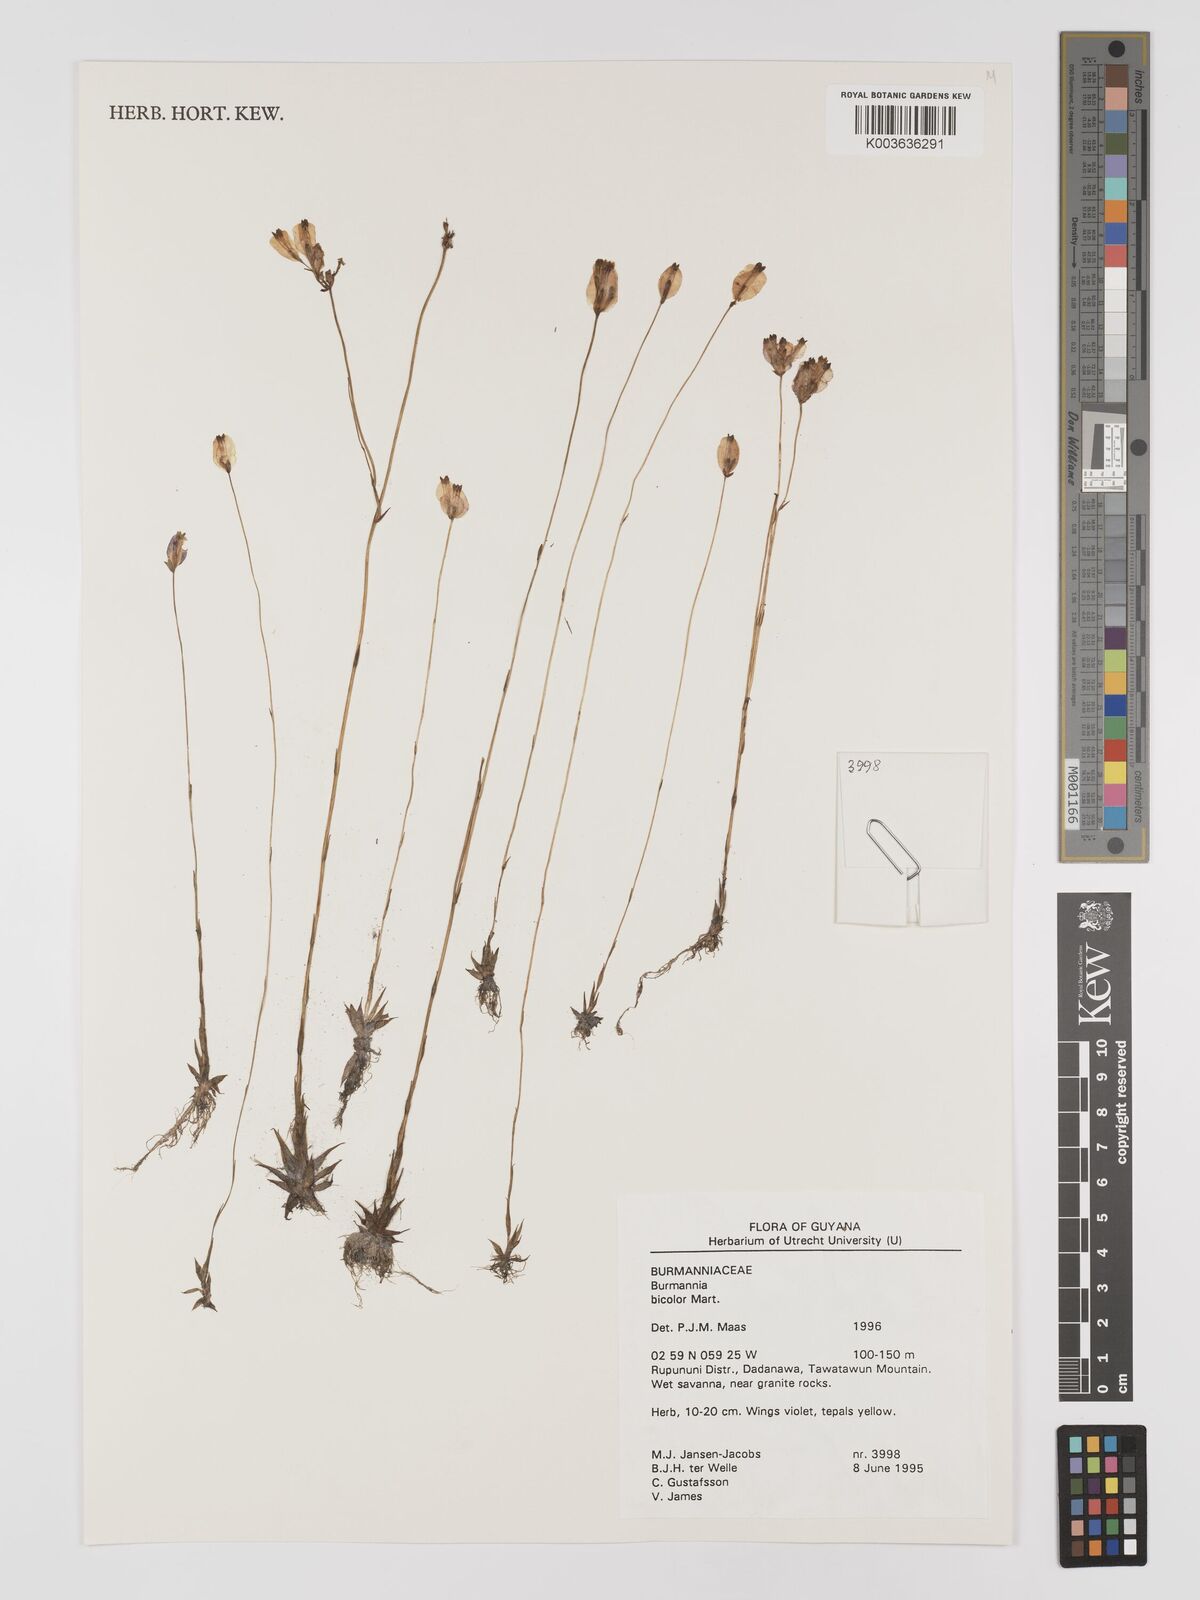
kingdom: Plantae
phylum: Tracheophyta
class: Liliopsida
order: Dioscoreales
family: Burmanniaceae
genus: Burmannia
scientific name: Burmannia bicolor
